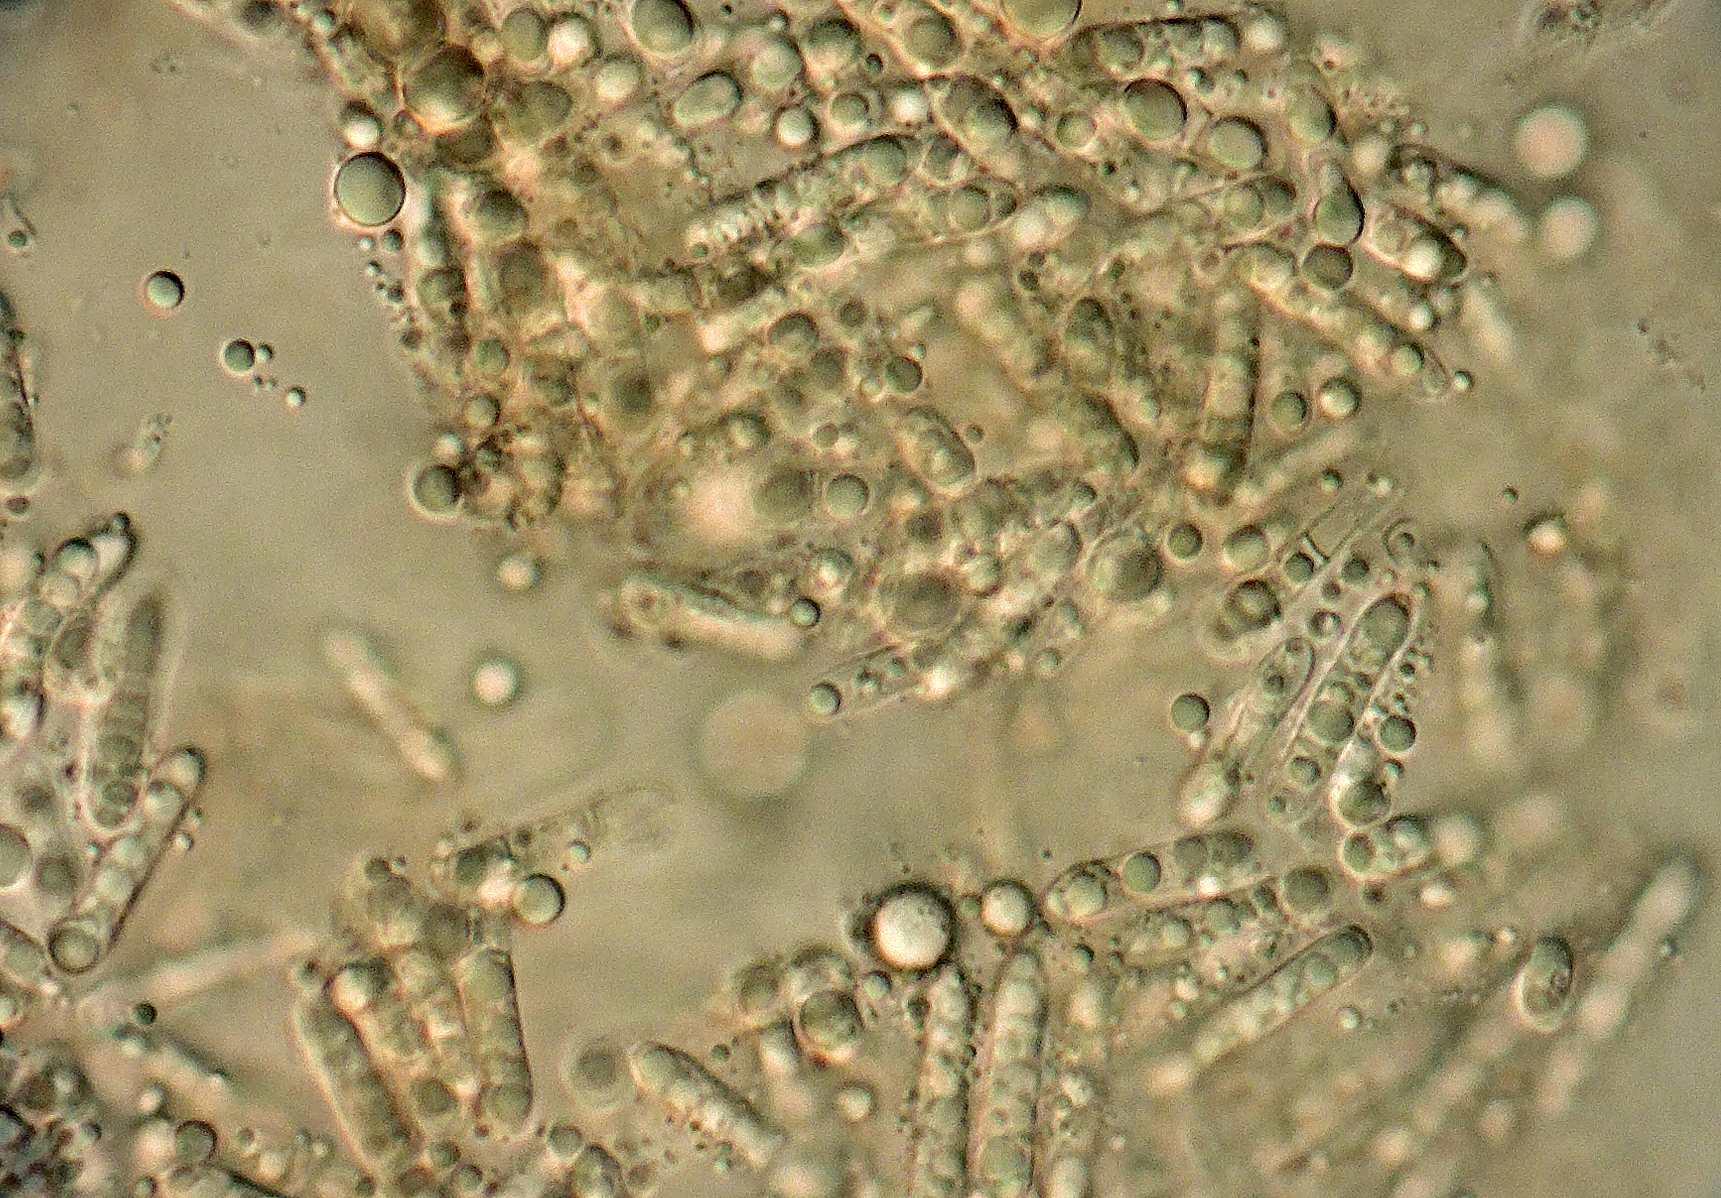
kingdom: Fungi
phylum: Ascomycota
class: Dothideomycetes
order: Pleosporales
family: Phaeosphaeriaceae
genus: Stagonospora
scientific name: Stagonospora vitensis
